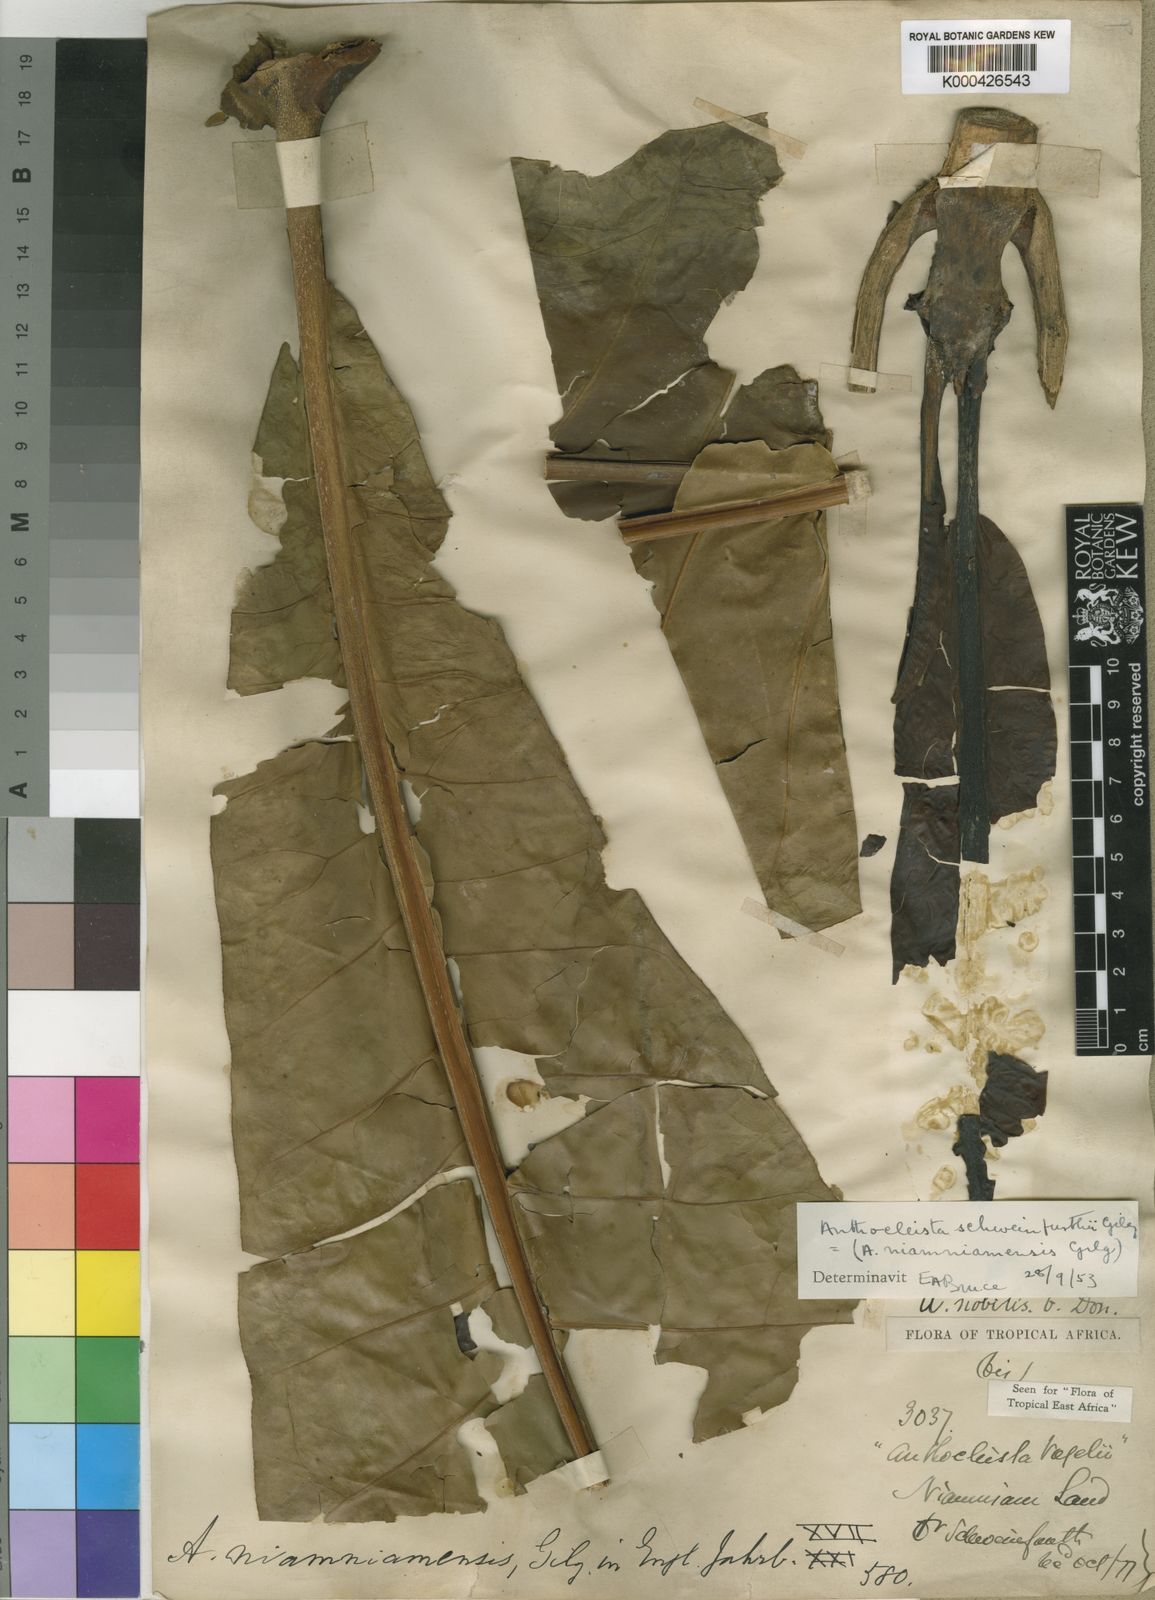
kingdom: Plantae
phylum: Tracheophyta
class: Magnoliopsida
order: Gentianales
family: Gentianaceae
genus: Anthocleista
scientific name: Anthocleista schweinfurthii
